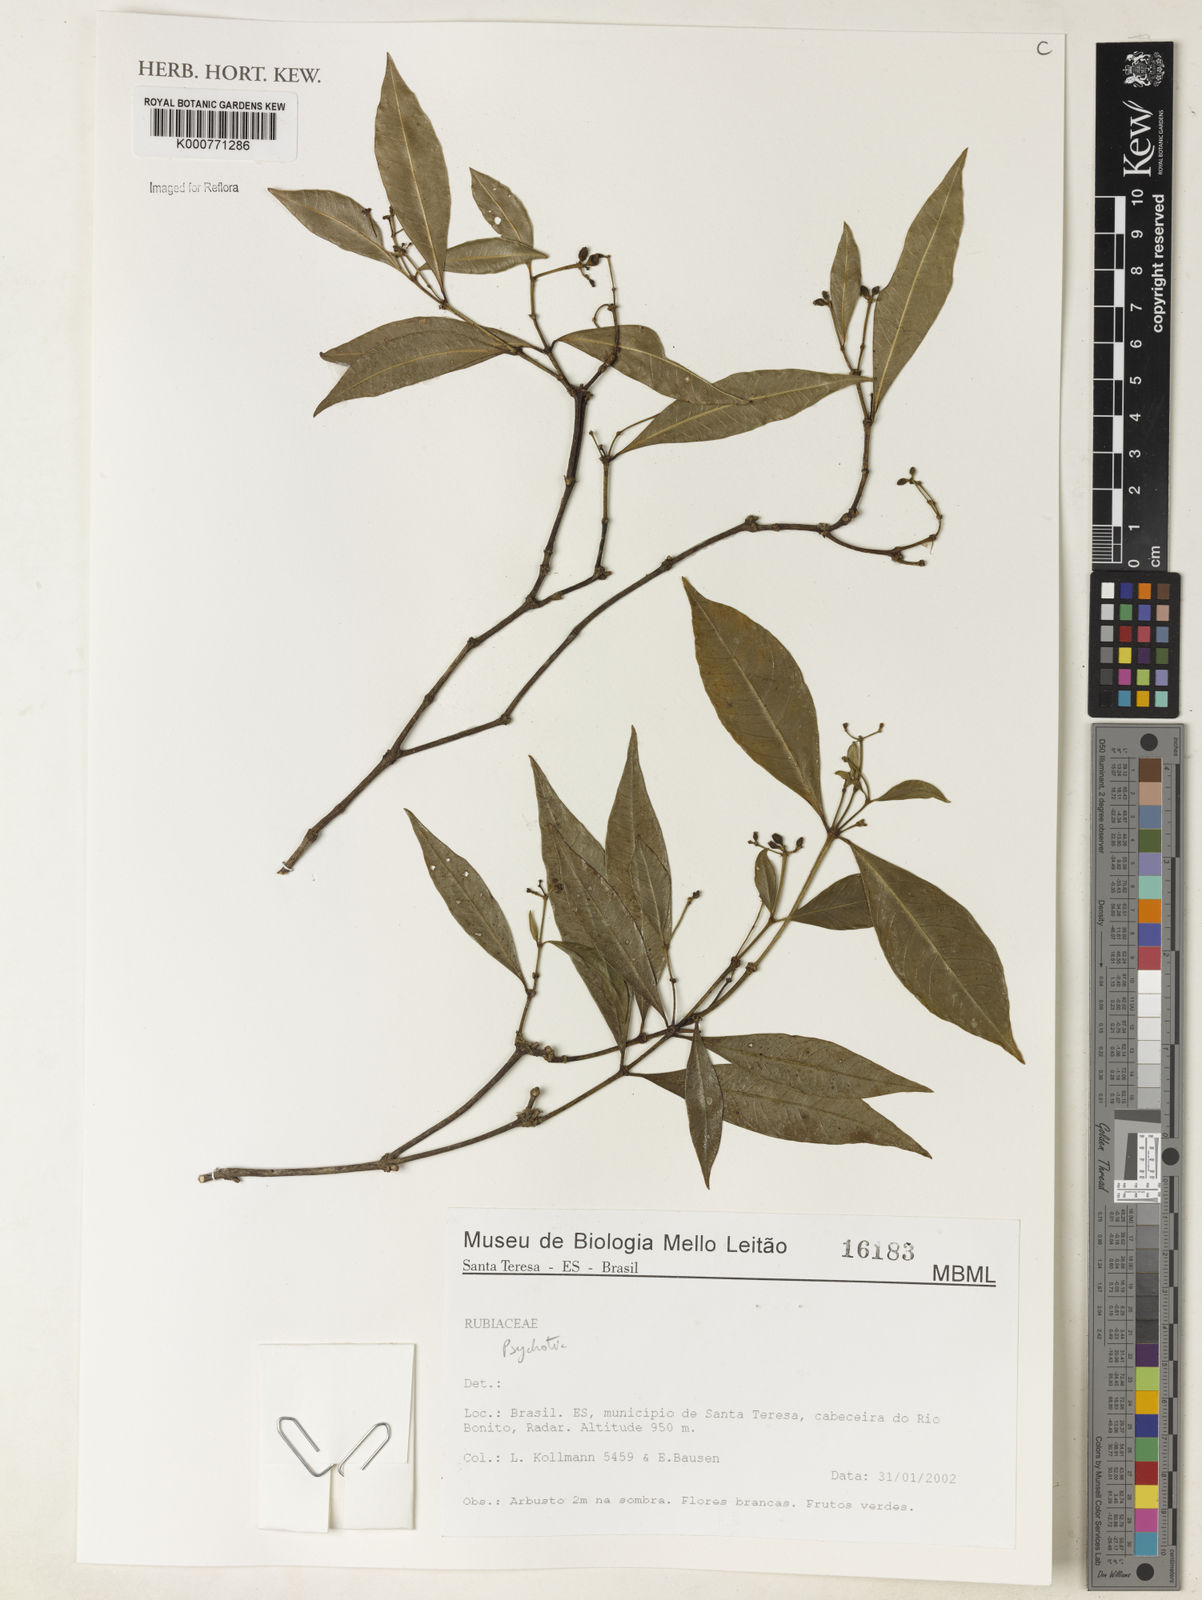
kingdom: Plantae
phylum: Tracheophyta
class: Magnoliopsida
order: Gentianales
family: Rubiaceae
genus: Psychotria
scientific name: Psychotria
